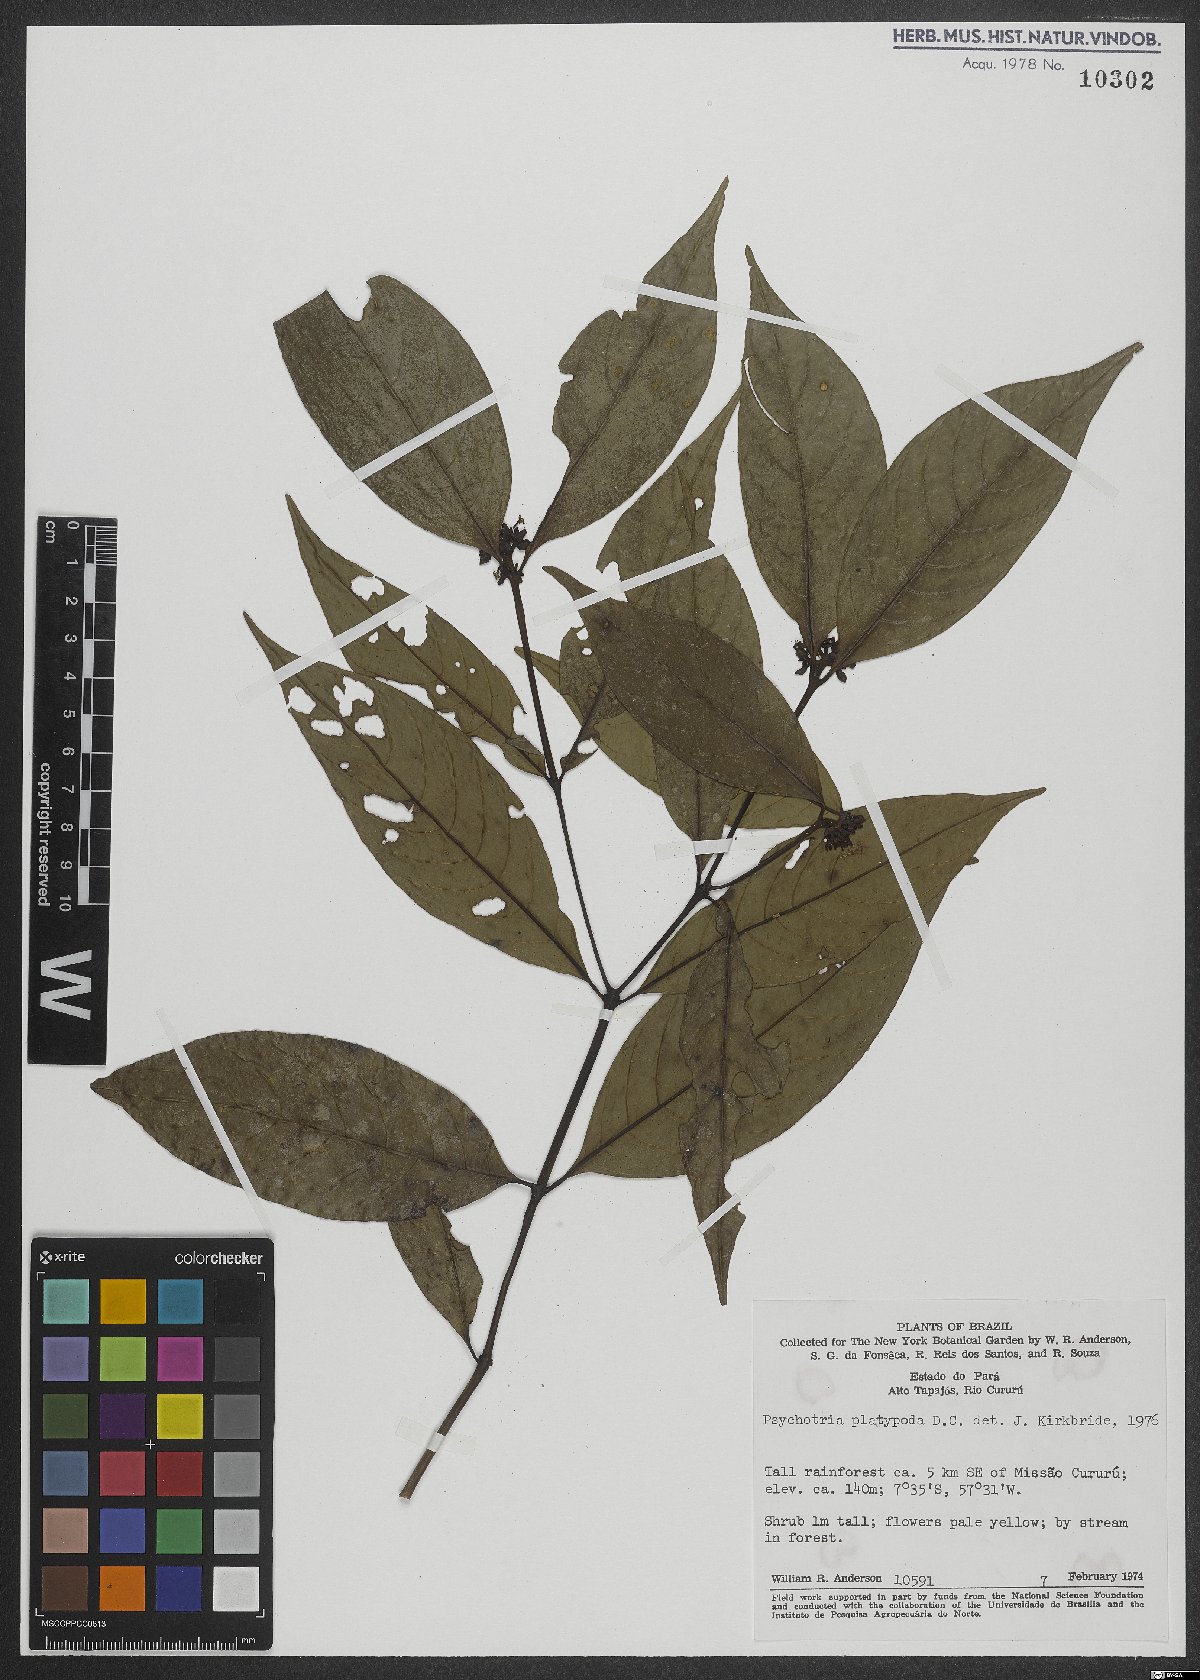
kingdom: Plantae
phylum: Tracheophyta
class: Magnoliopsida
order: Gentianales
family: Rubiaceae
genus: Palicourea
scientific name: Palicourea dichotoma
